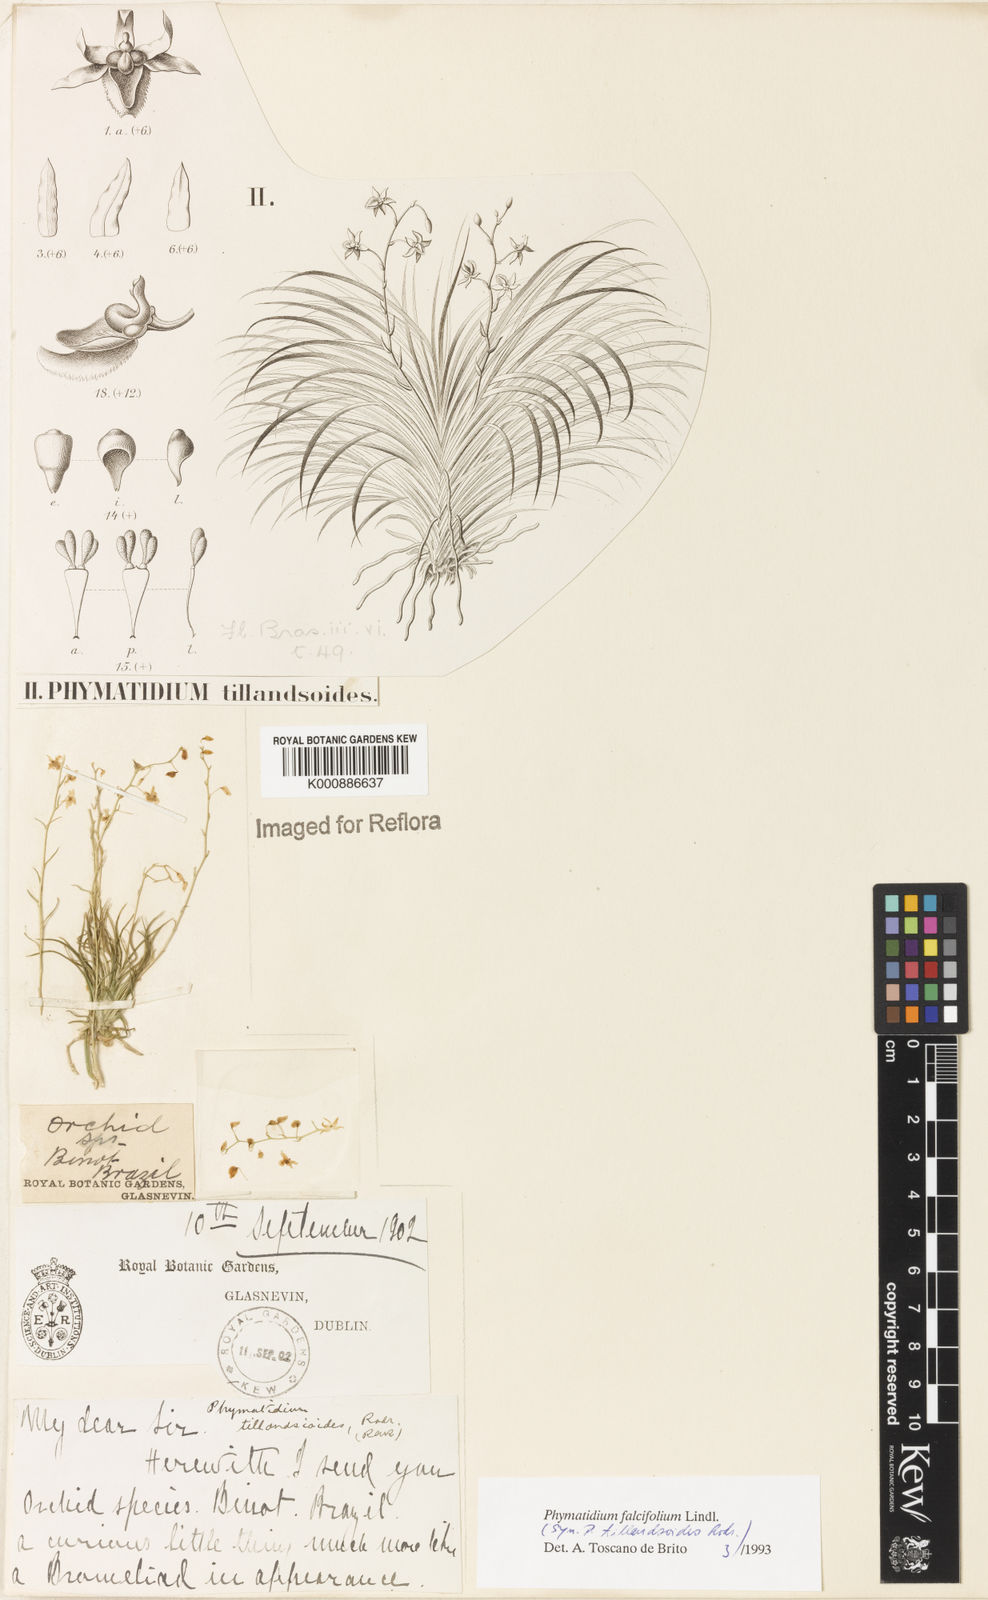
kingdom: Plantae
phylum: Tracheophyta
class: Liliopsida
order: Asparagales
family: Orchidaceae
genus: Phymatidium
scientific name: Phymatidium falcifolium
